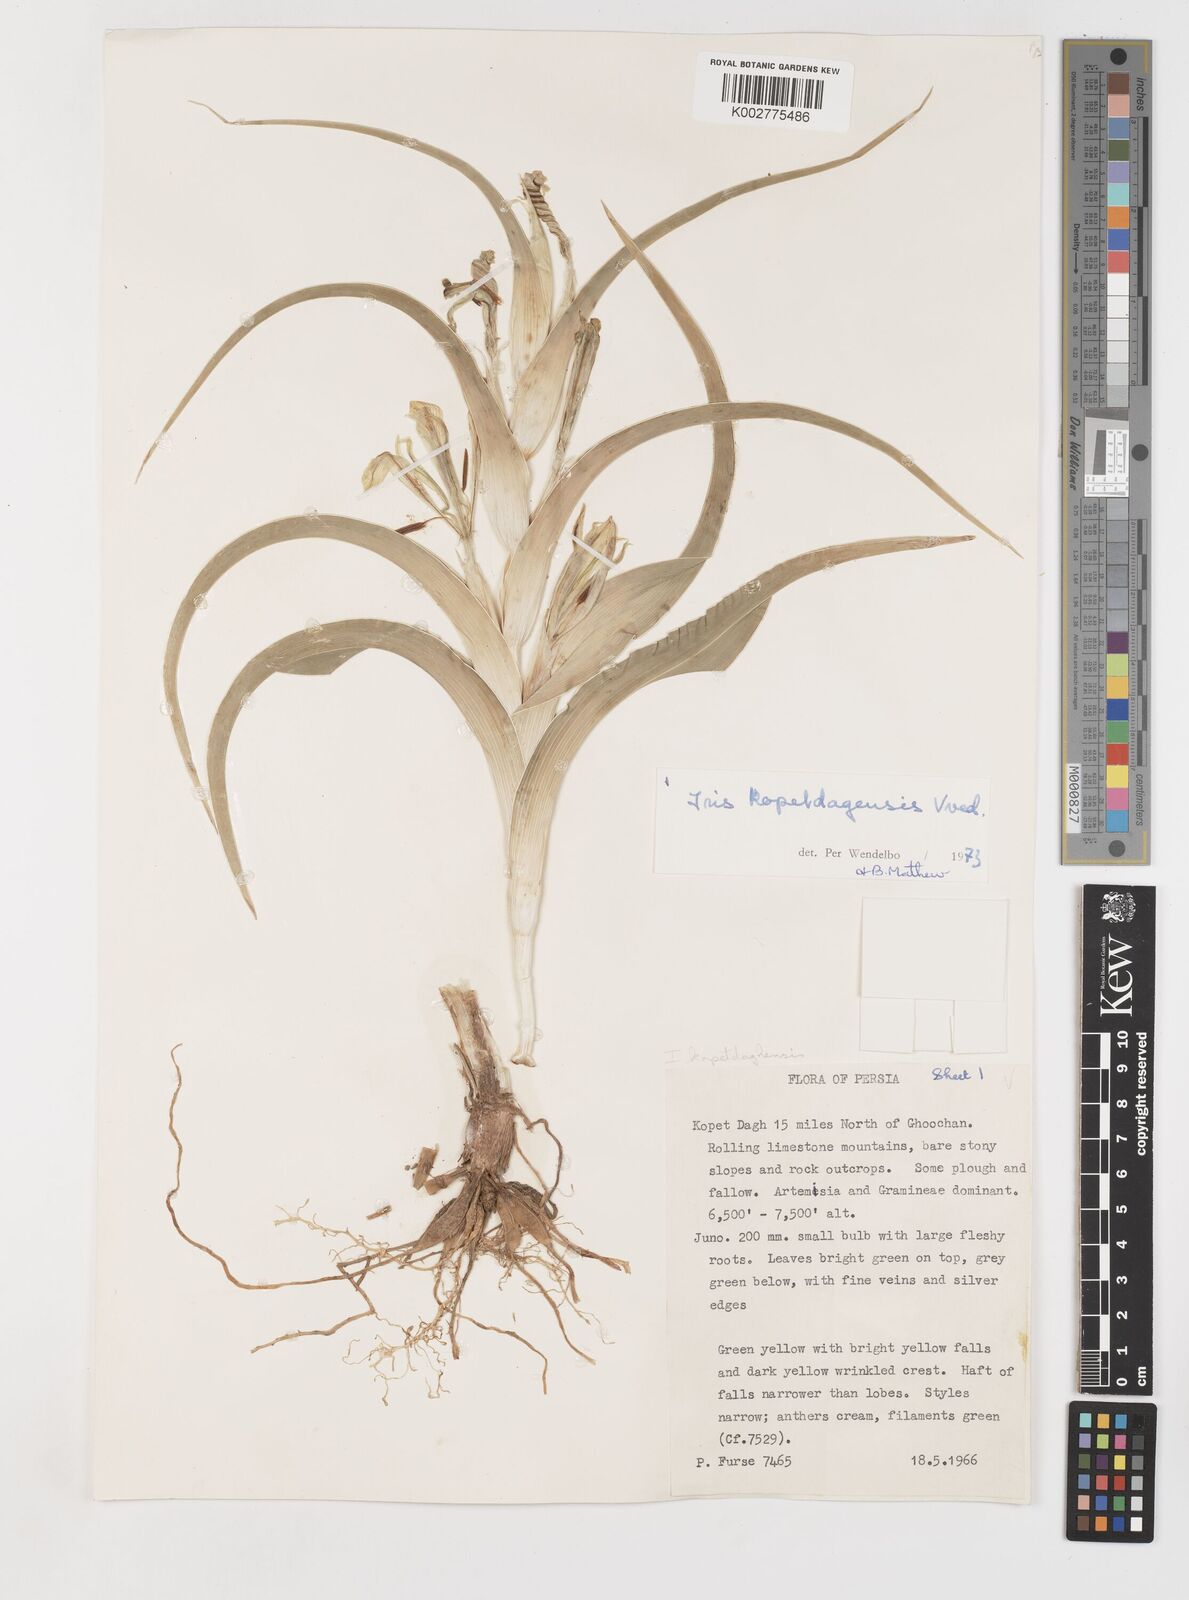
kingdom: Plantae
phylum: Tracheophyta
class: Liliopsida
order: Asparagales
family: Iridaceae
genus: Iris
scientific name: Iris kopetdagensis
